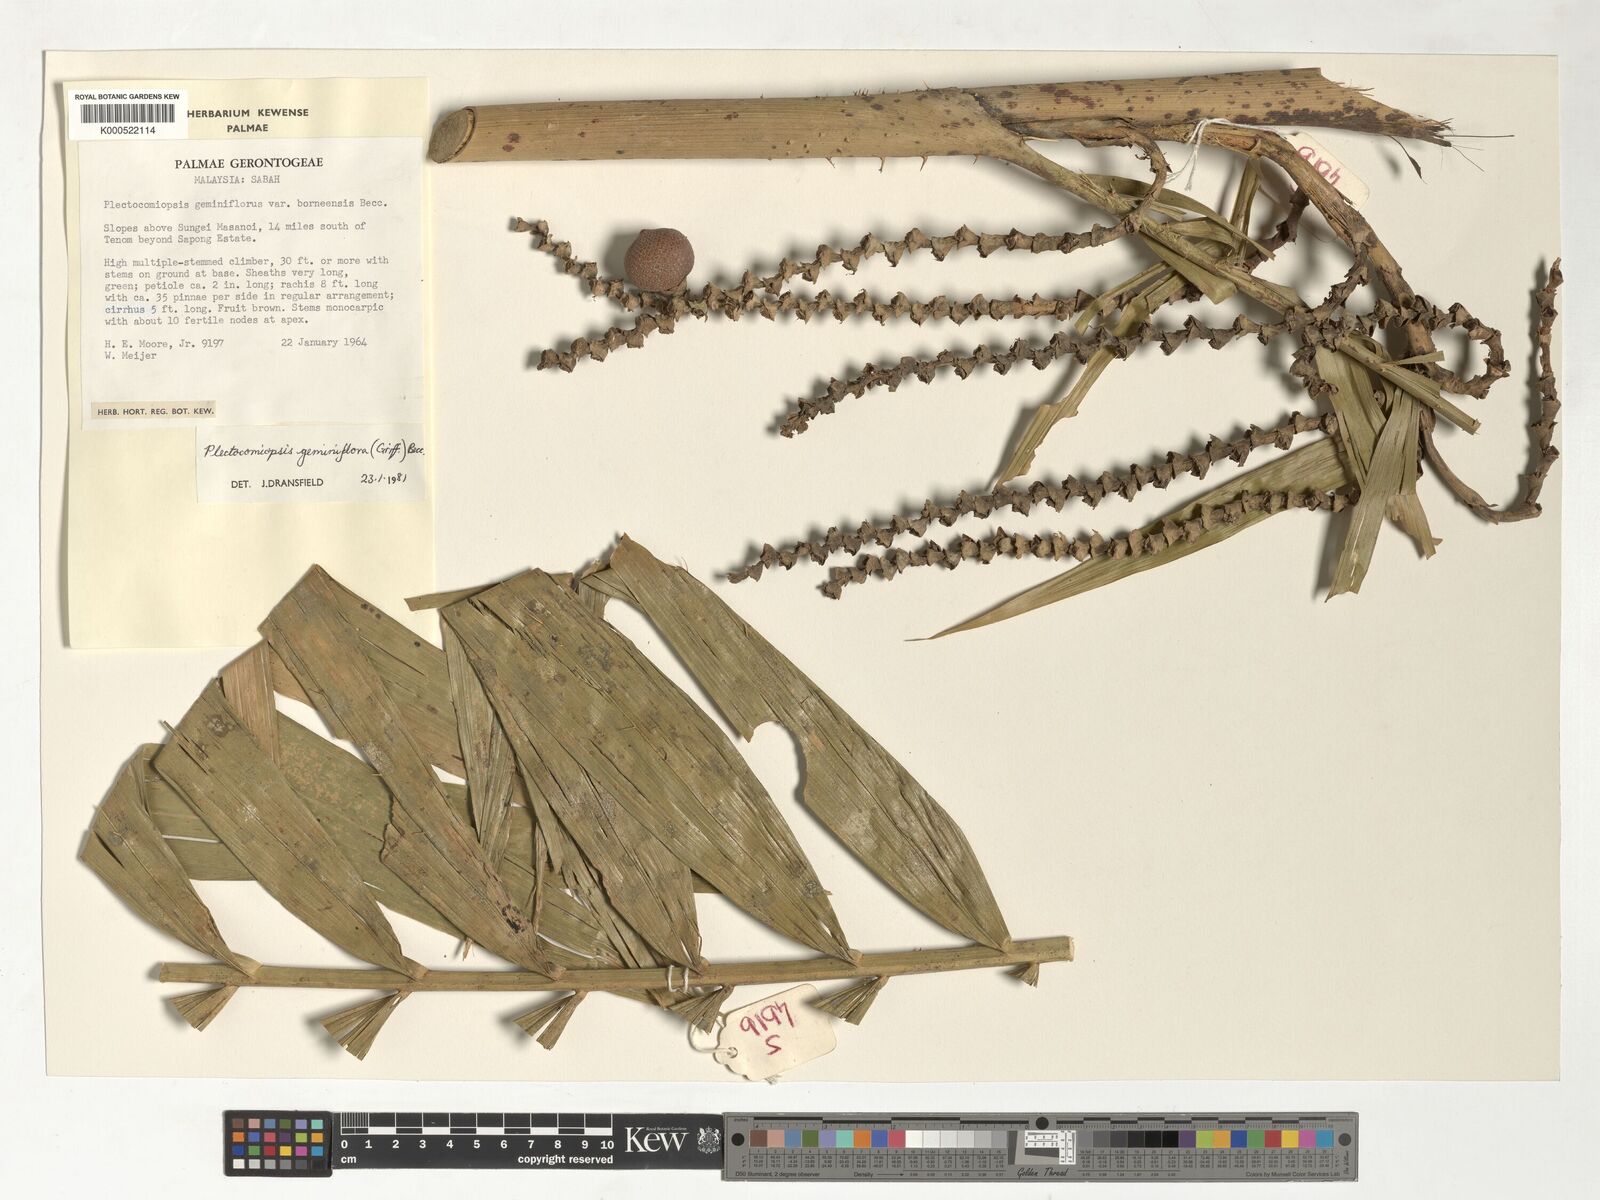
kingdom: Plantae
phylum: Tracheophyta
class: Liliopsida
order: Arecales
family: Arecaceae
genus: Plectocomiopsis
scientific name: Plectocomiopsis geminiflora
